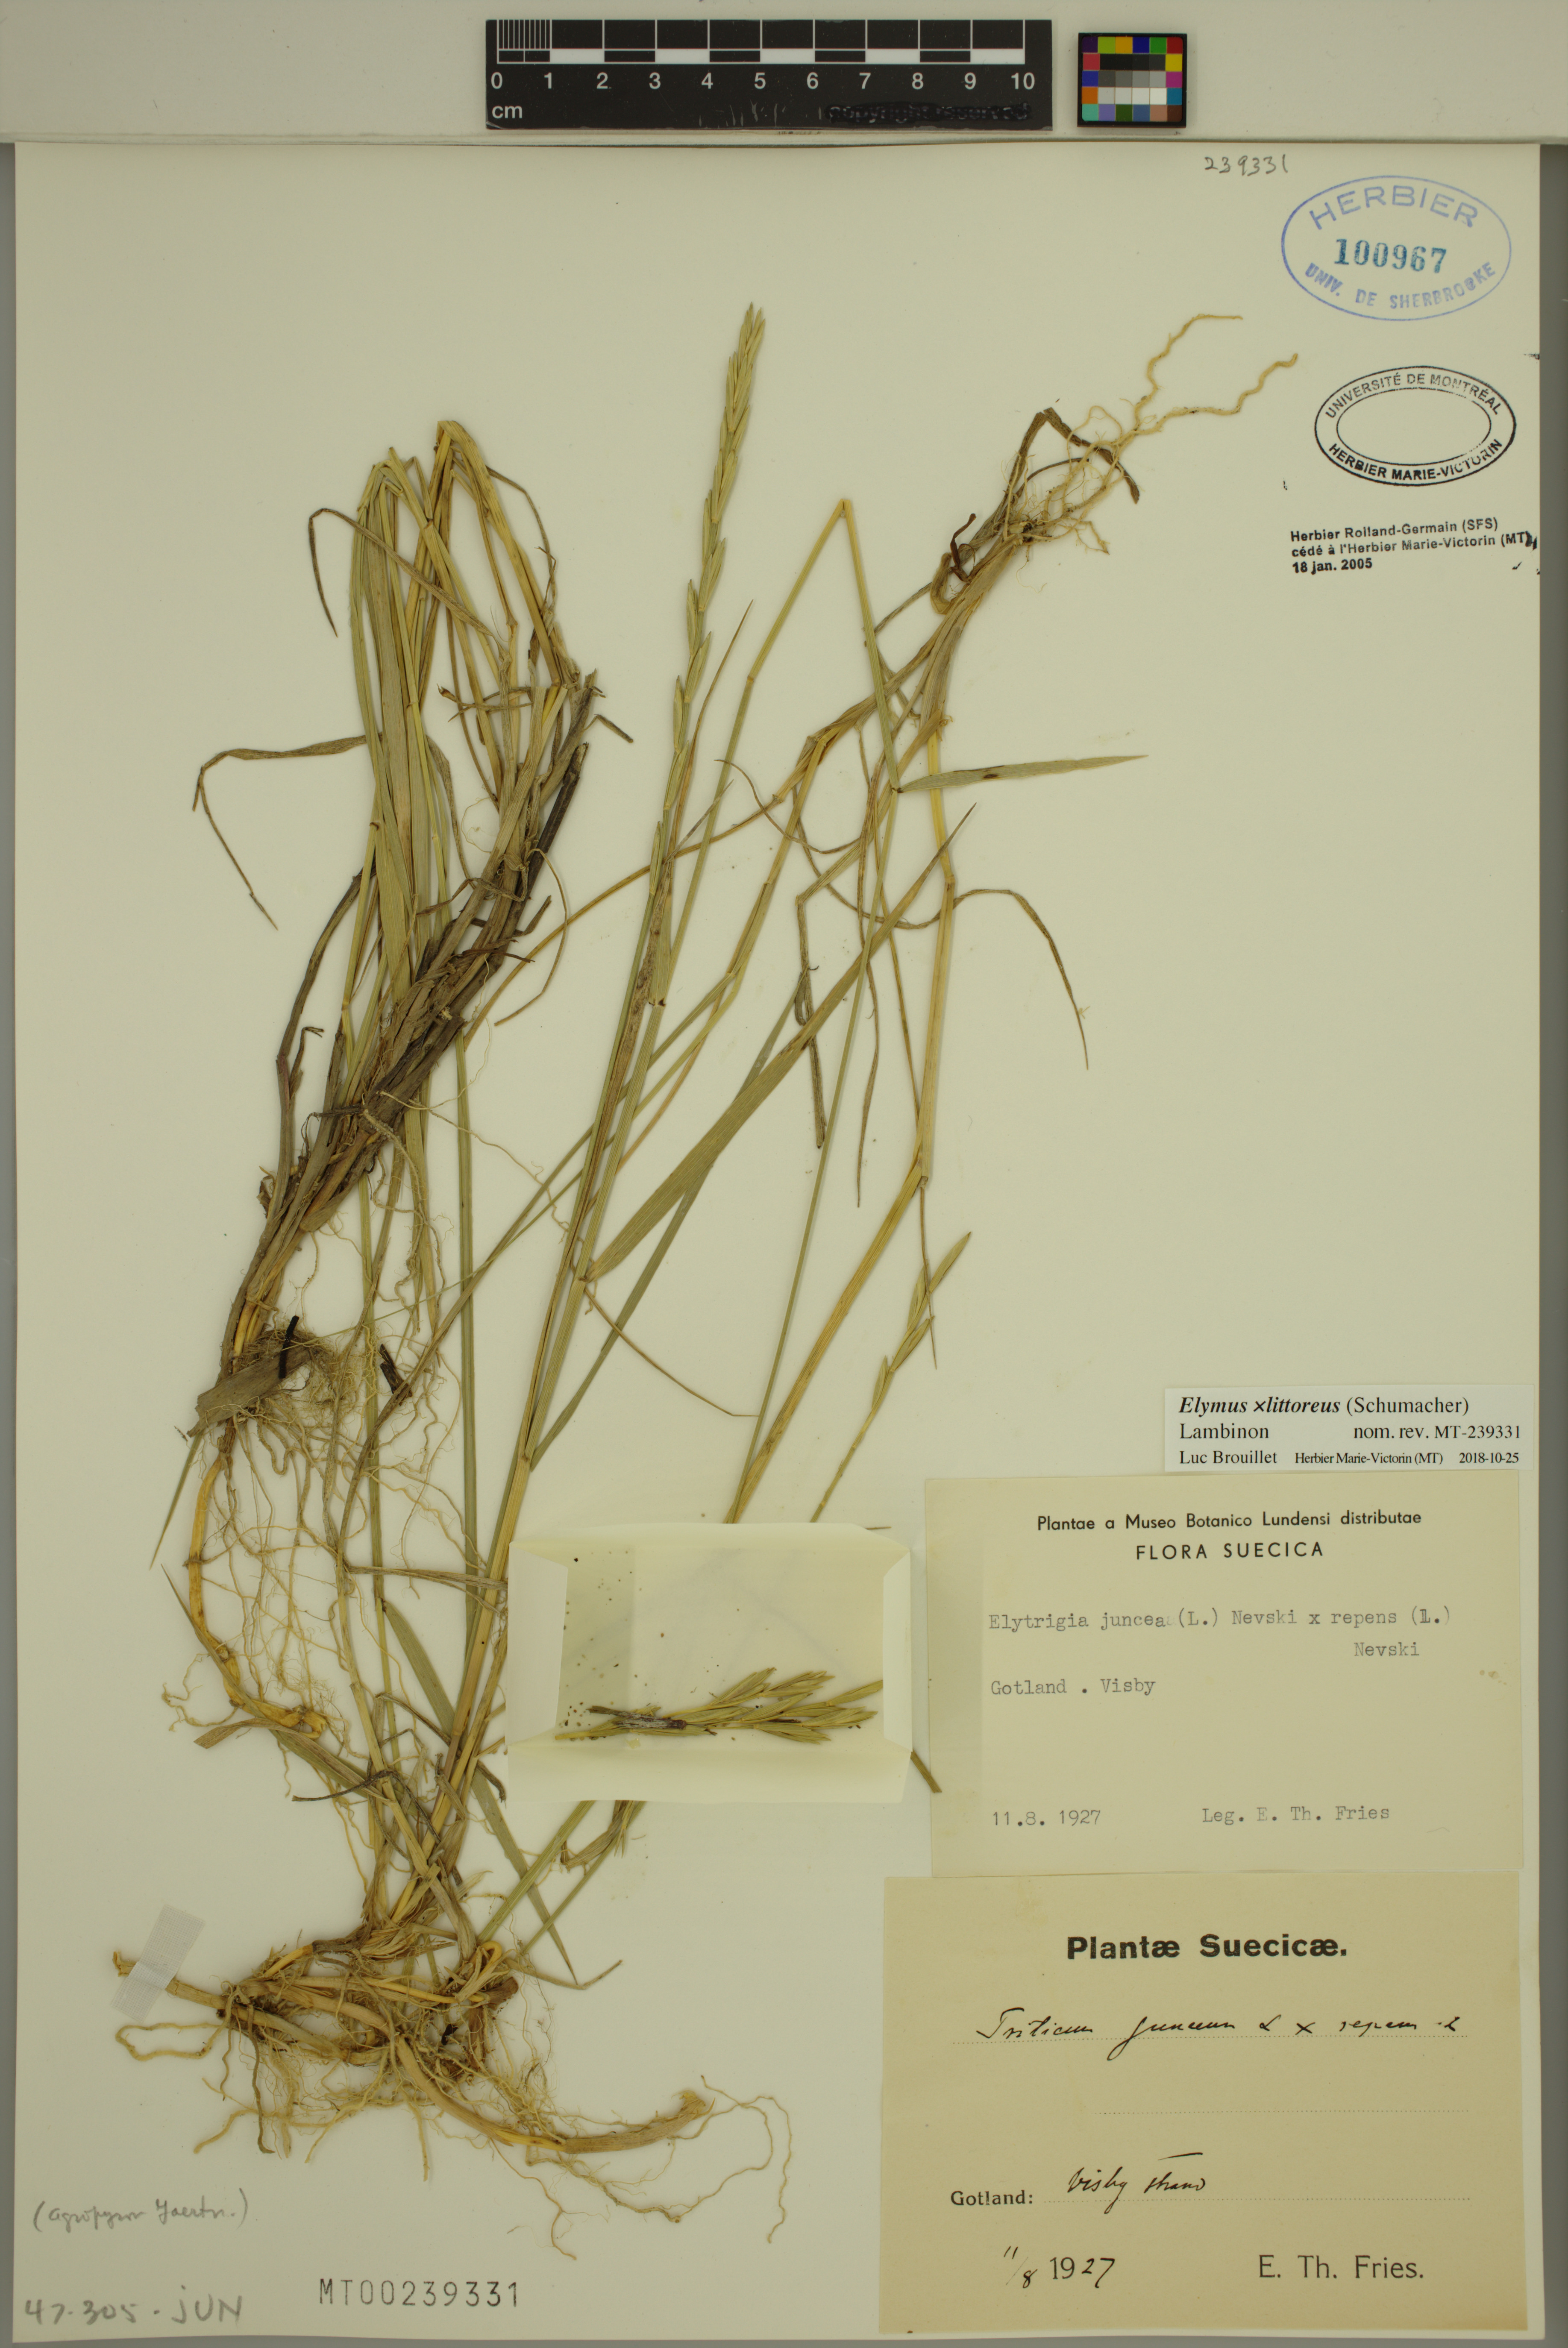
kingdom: Plantae
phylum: Tracheophyta
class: Liliopsida
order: Poales
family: Poaceae
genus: Elymus
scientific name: Elymus repens
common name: Quackgrass
